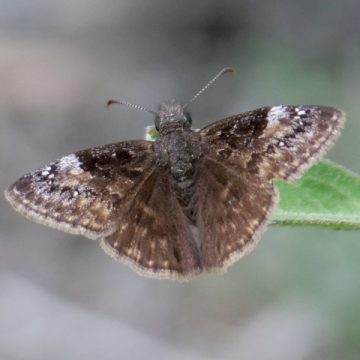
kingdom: Animalia
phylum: Arthropoda
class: Insecta
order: Lepidoptera
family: Hesperiidae
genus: Gesta
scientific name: Gesta
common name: Wild Indigo Duskywing
